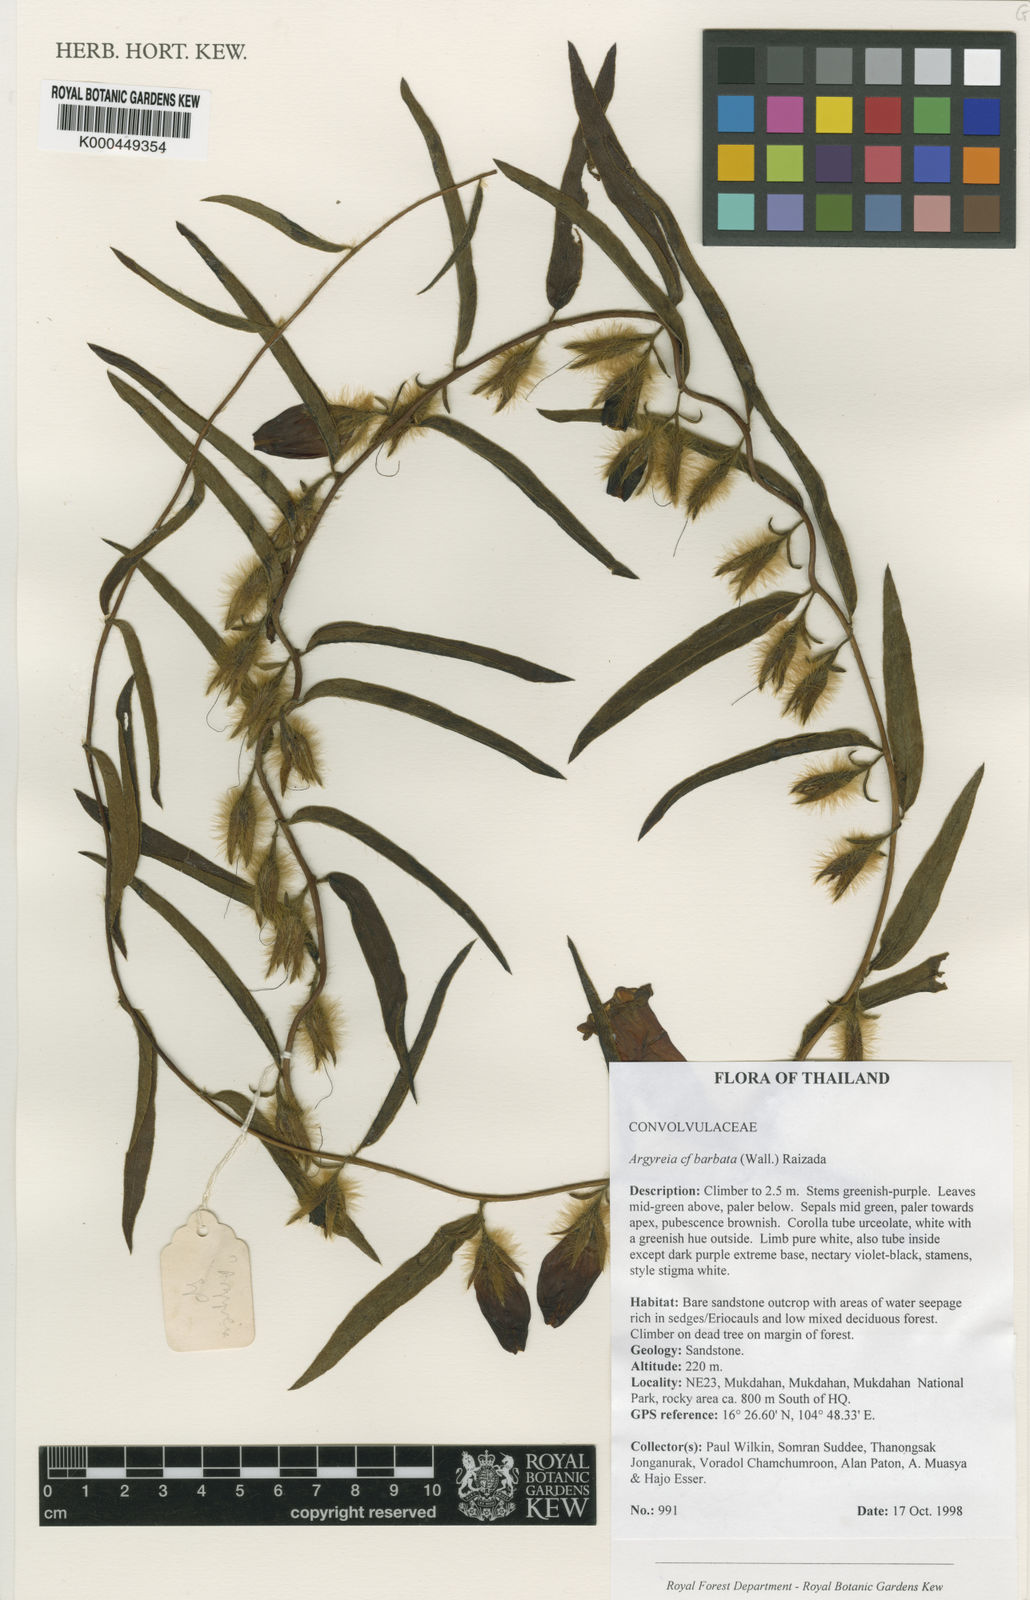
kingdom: Plantae
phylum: Tracheophyta
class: Magnoliopsida
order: Solanales
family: Convolvulaceae
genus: Argyreia
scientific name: Argyreia barbata
